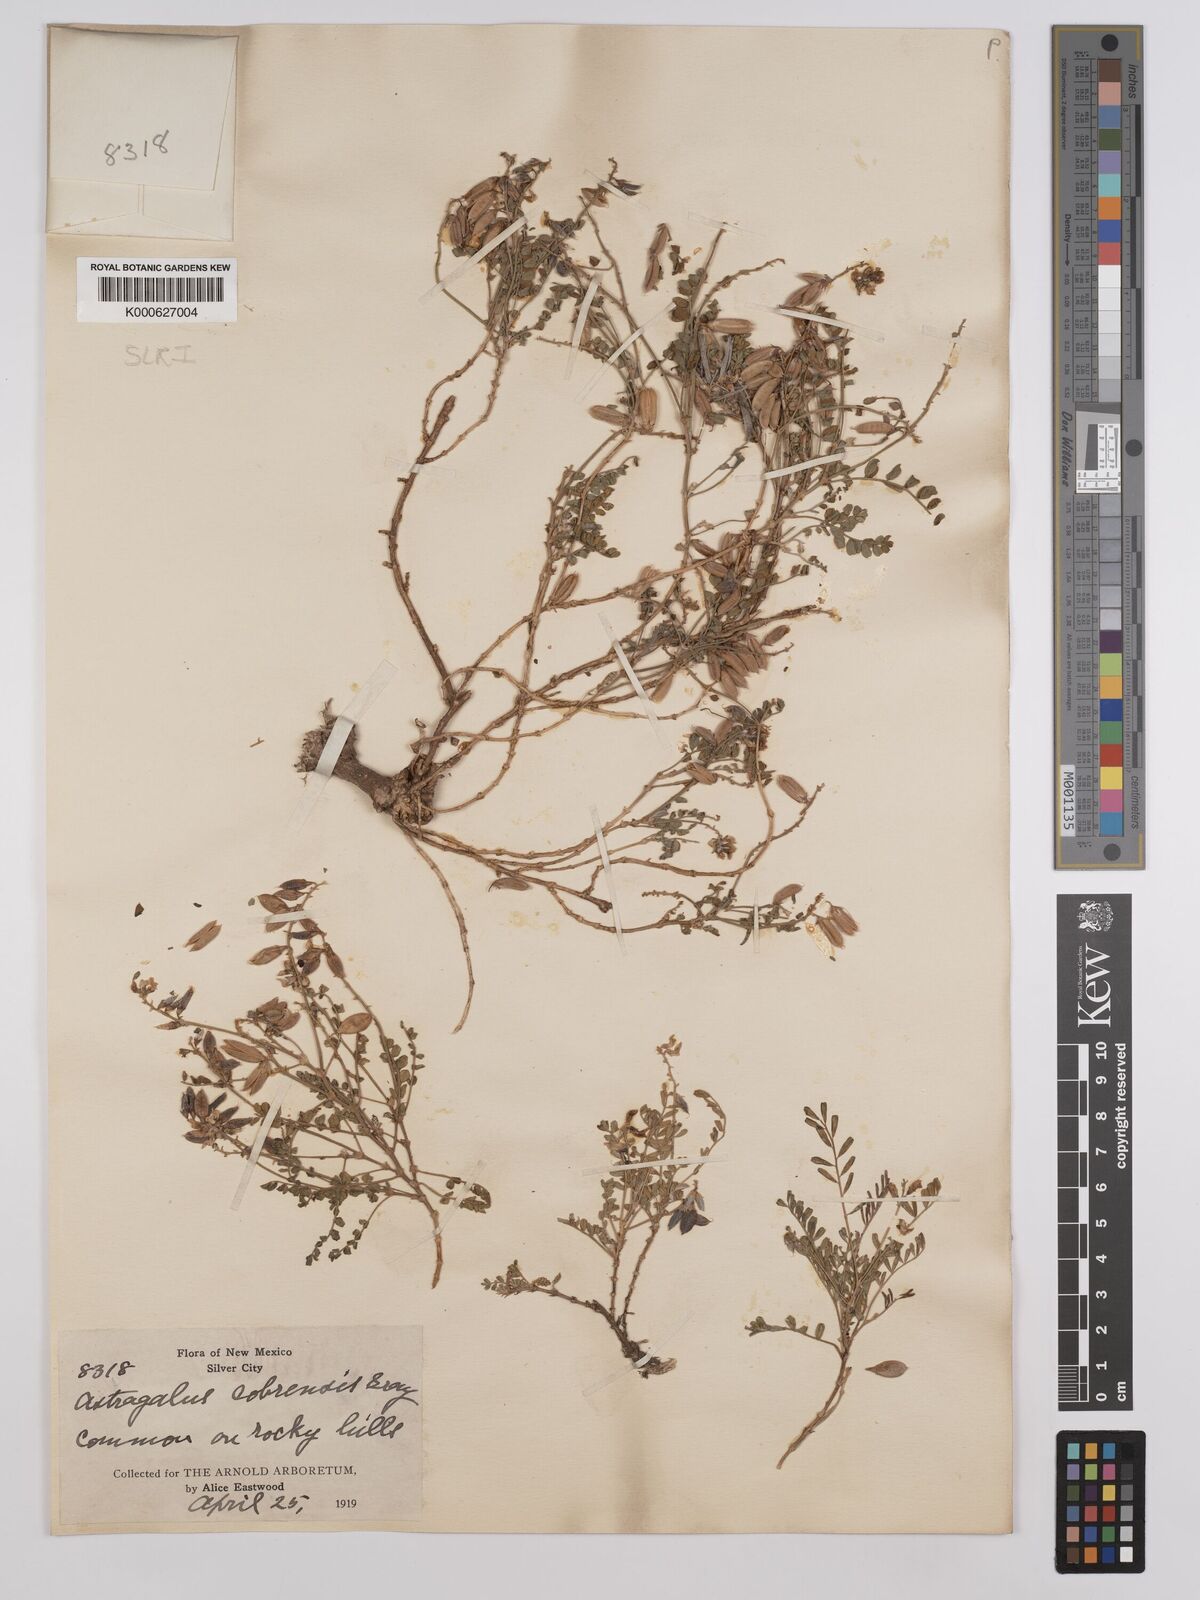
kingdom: Plantae
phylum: Tracheophyta
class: Magnoliopsida
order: Fabales
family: Fabaceae
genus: Astragalus
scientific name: Astragalus cobrensis
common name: Copper mine milkvetch
